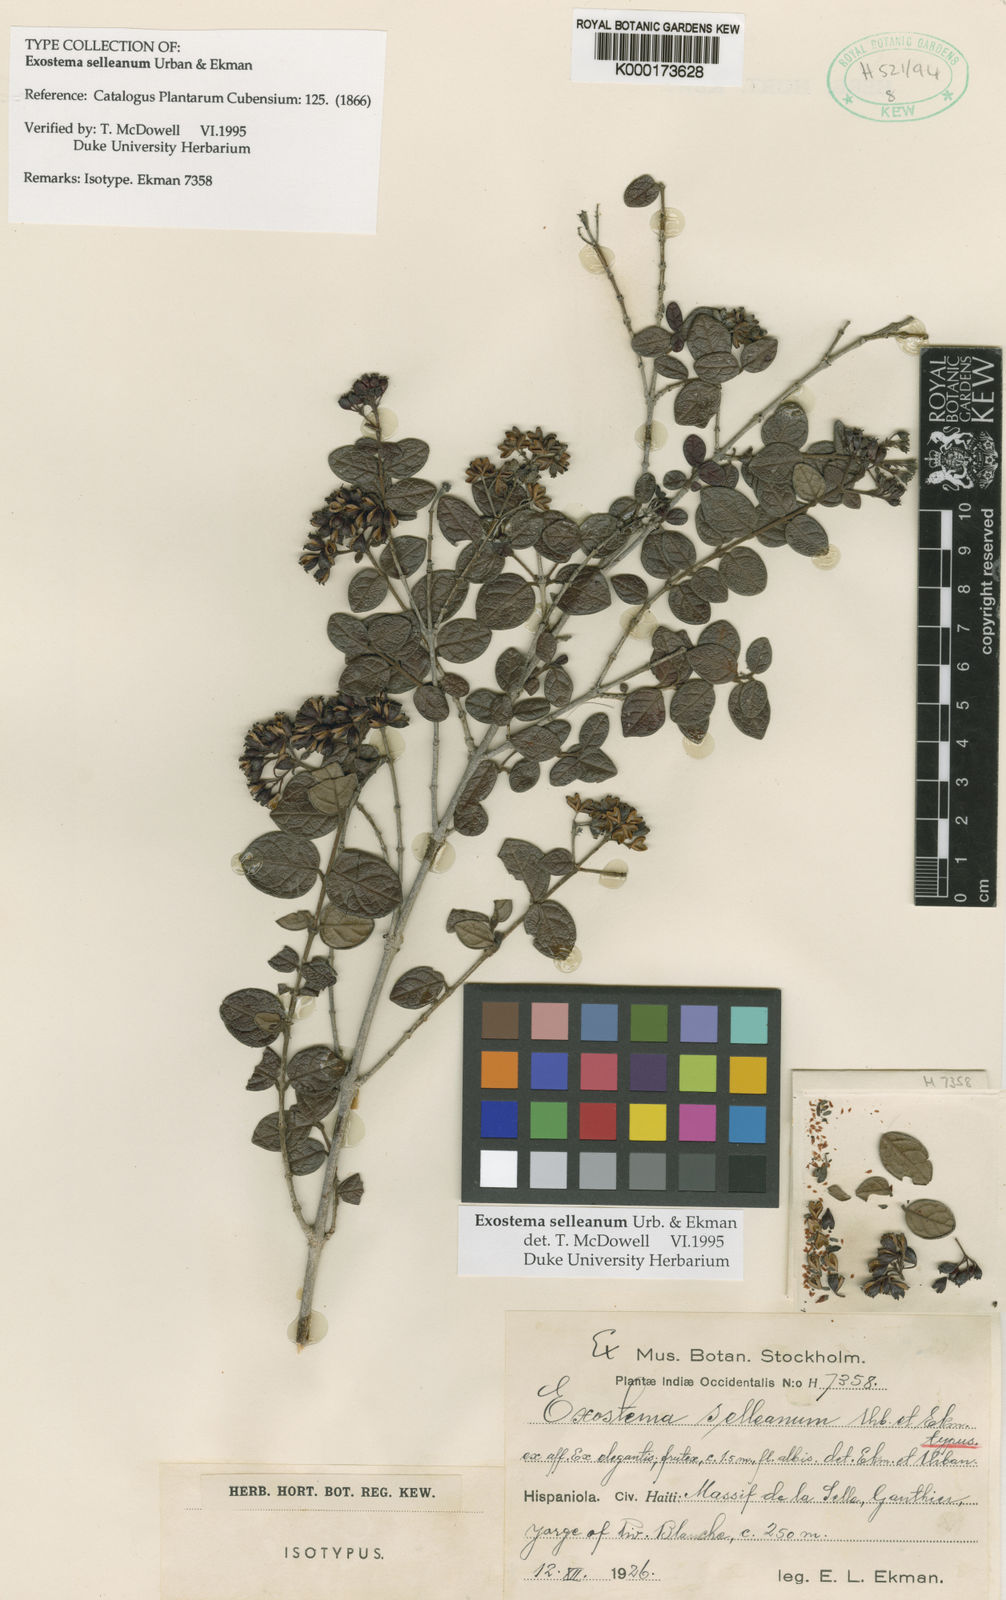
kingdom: Plantae
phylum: Tracheophyta
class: Magnoliopsida
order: Gentianales
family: Rubiaceae
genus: Solenandra
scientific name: Solenandra selleana
